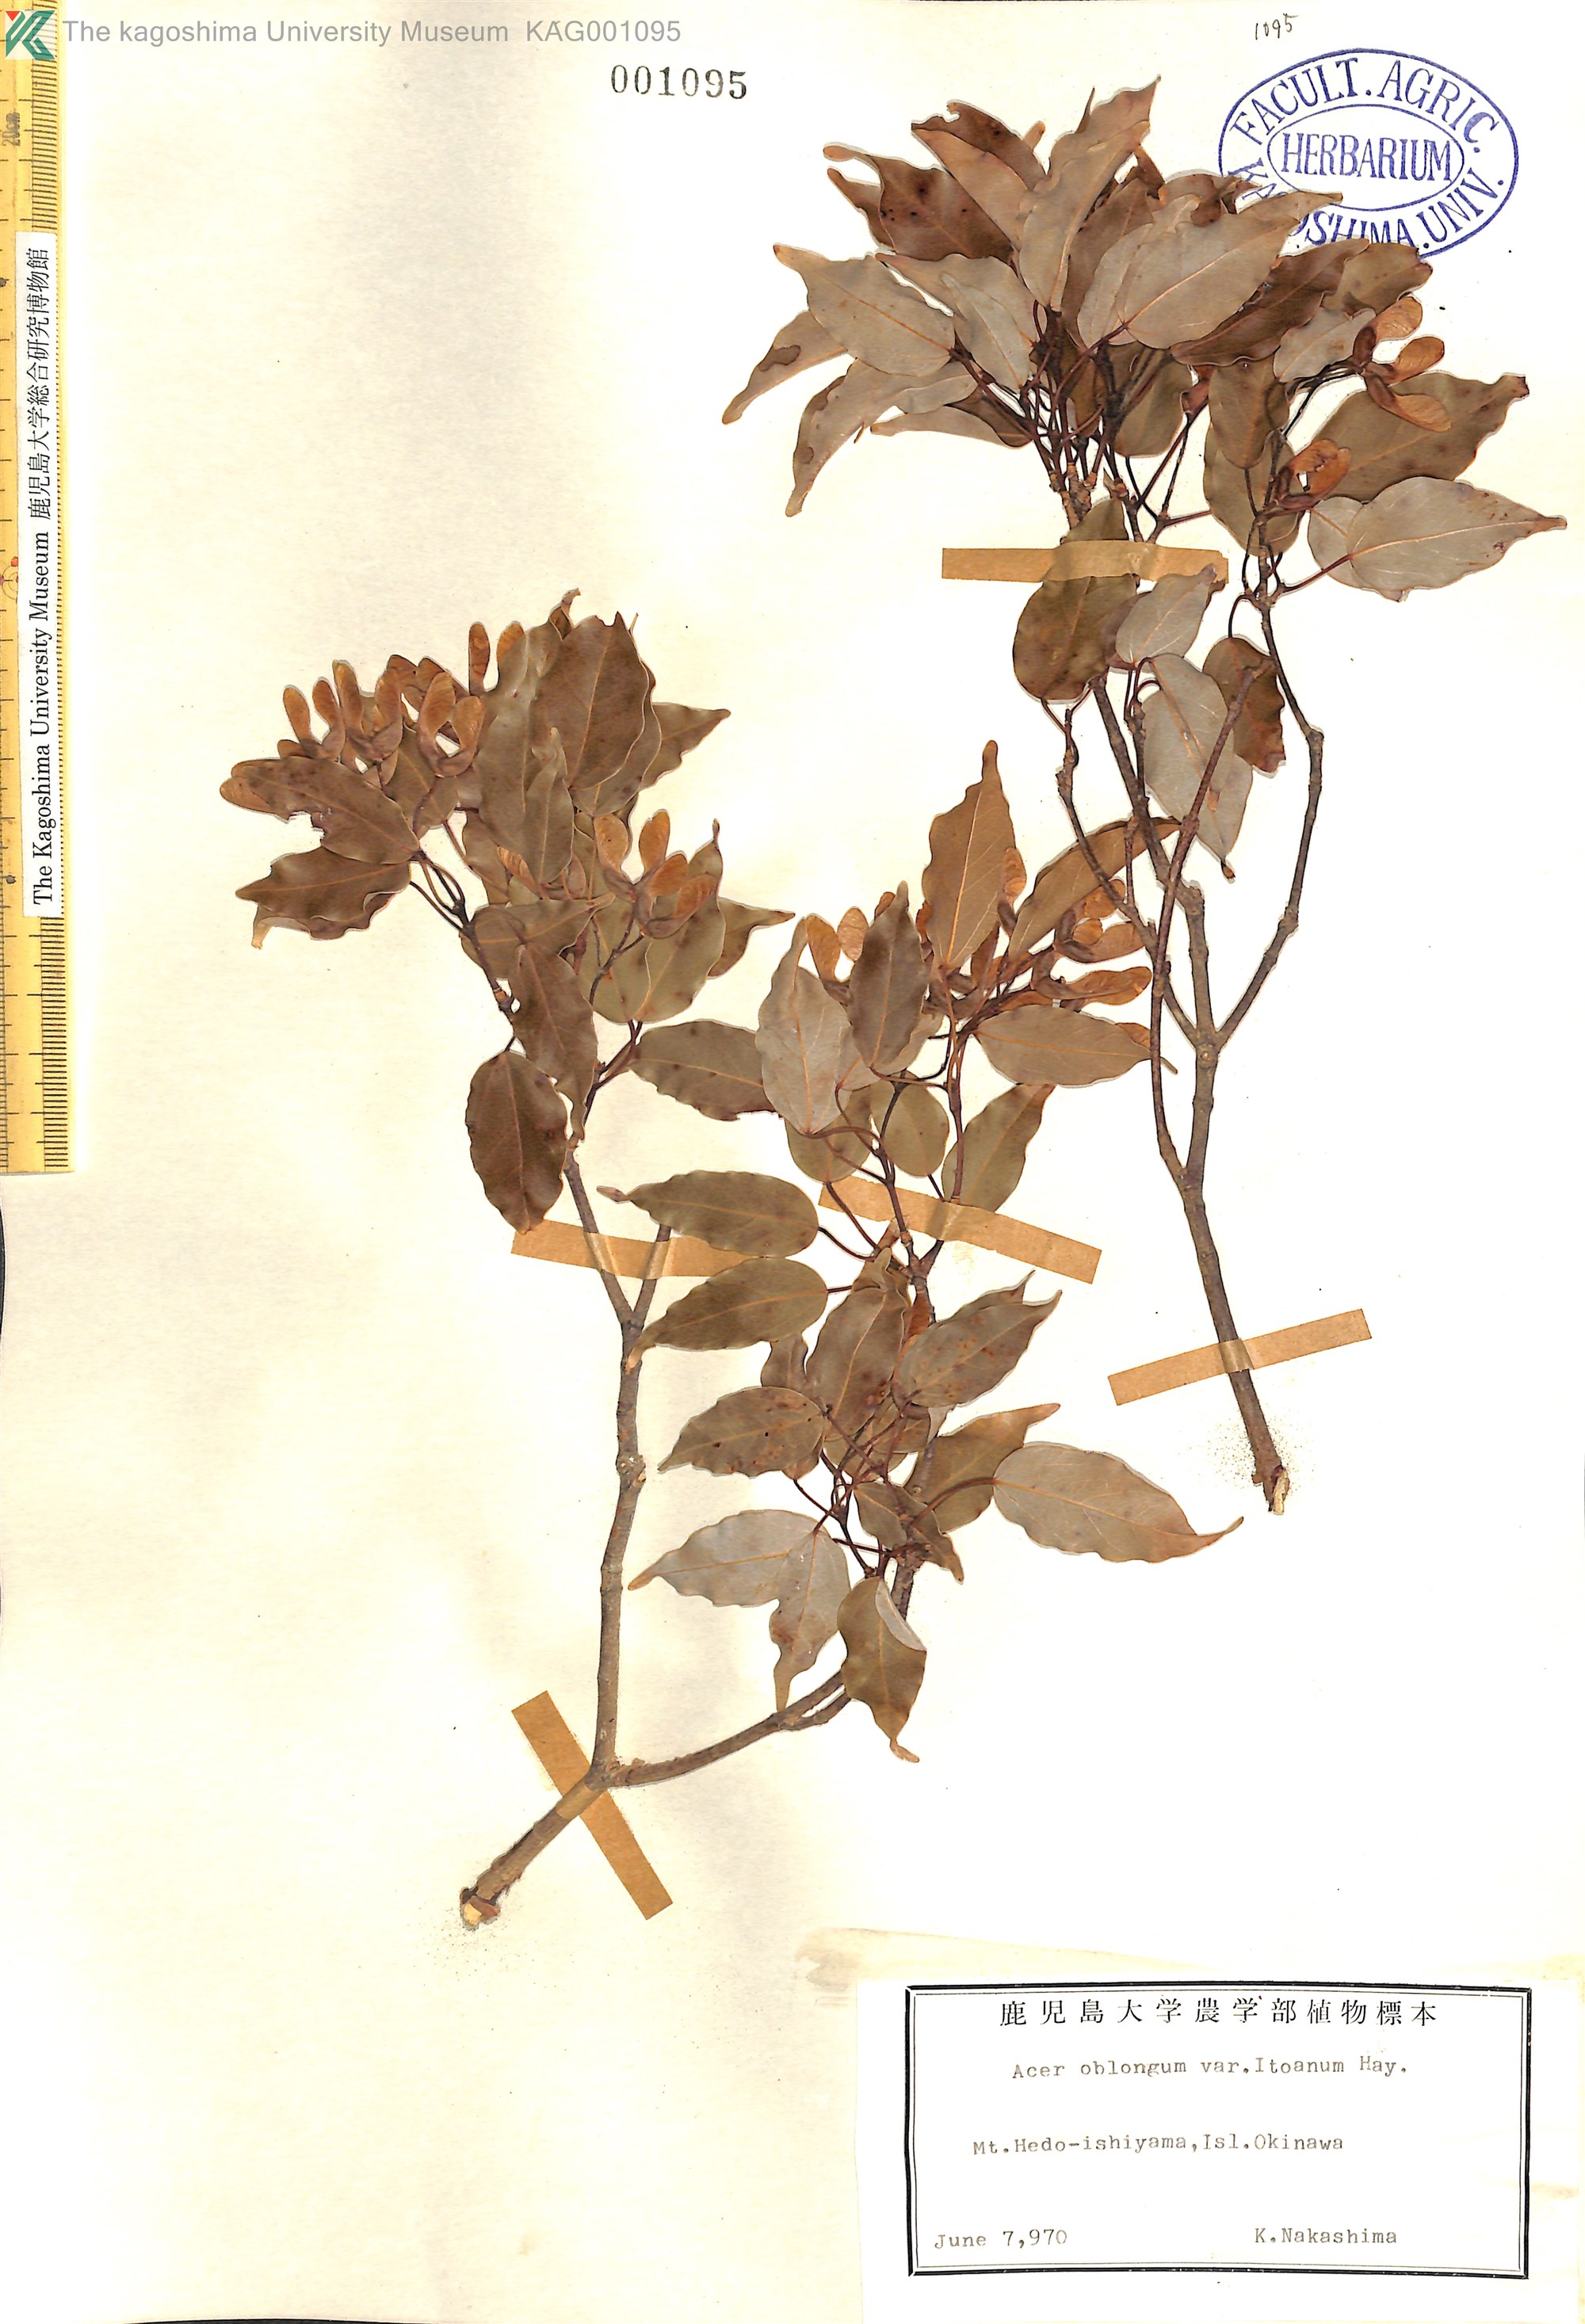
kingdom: Plantae
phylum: Tracheophyta
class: Magnoliopsida
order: Sapindales
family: Sapindaceae
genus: Acer
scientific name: Acer oblongum
